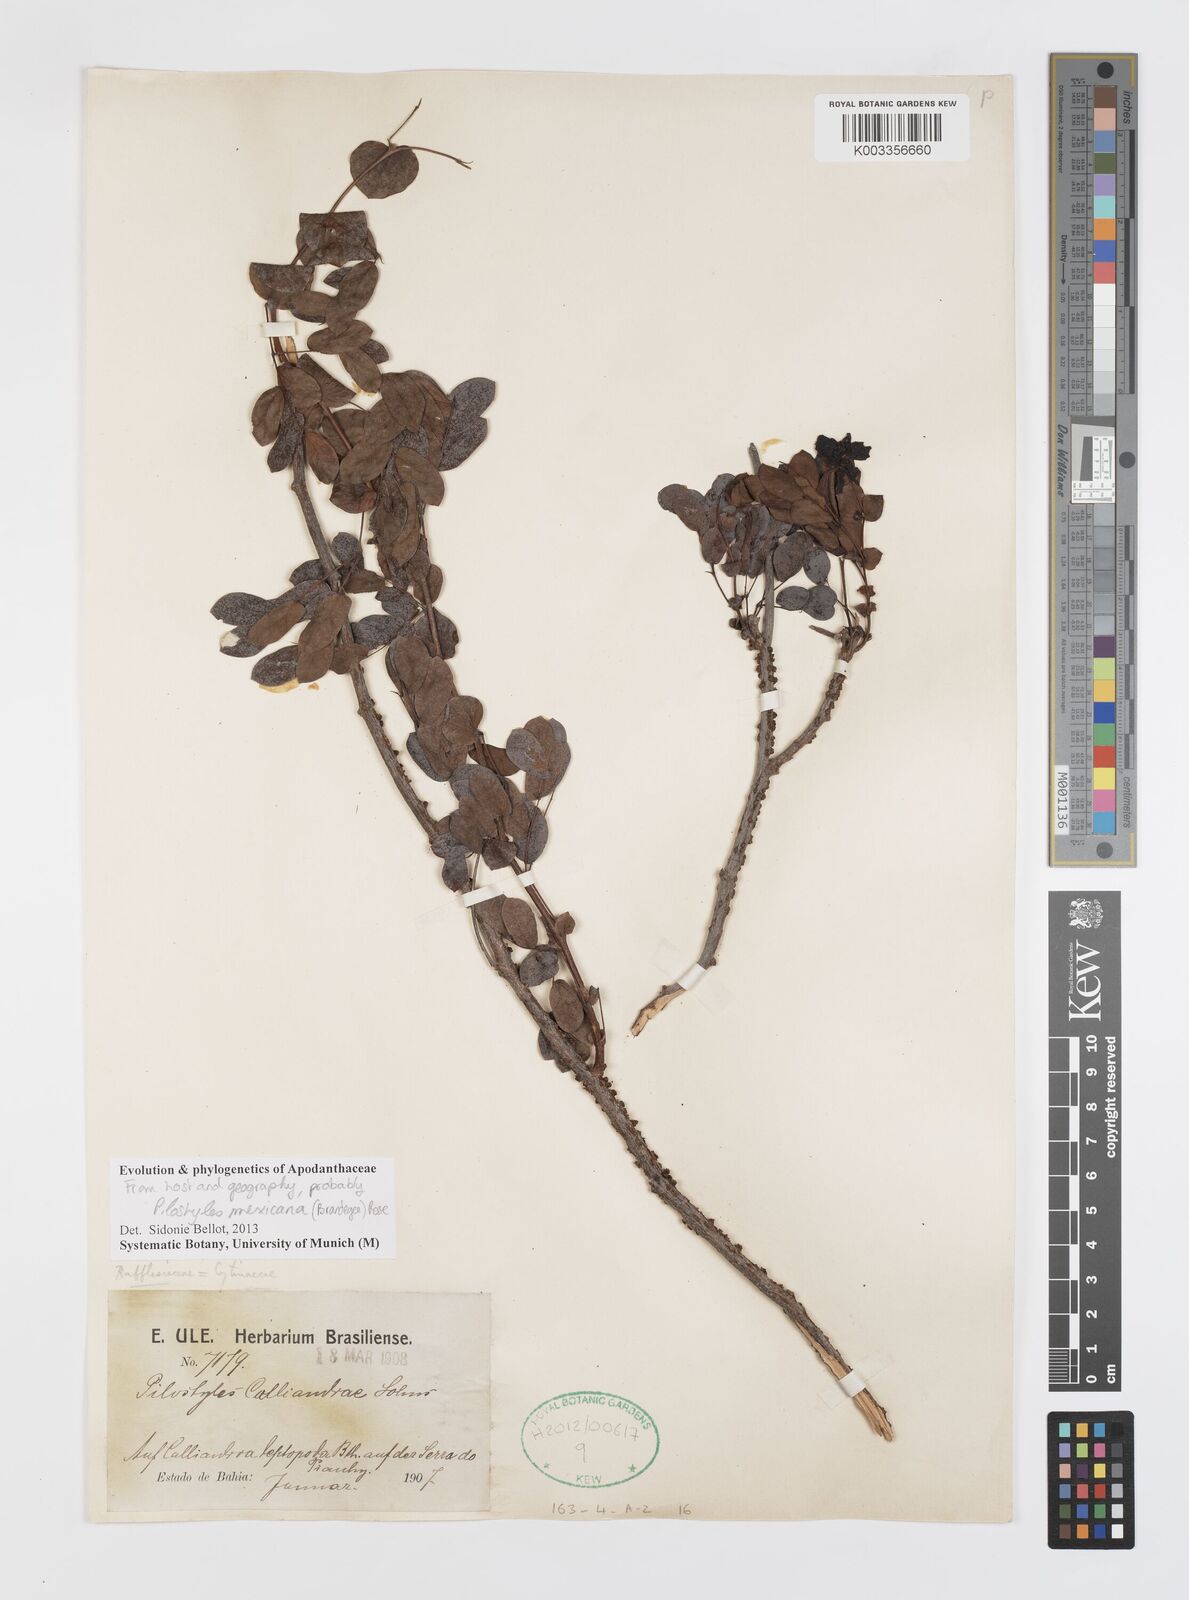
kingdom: Plantae
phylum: Tracheophyta
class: Magnoliopsida
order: Cucurbitales
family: Apodanthaceae
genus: Pilostyles
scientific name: Pilostyles mexicana
